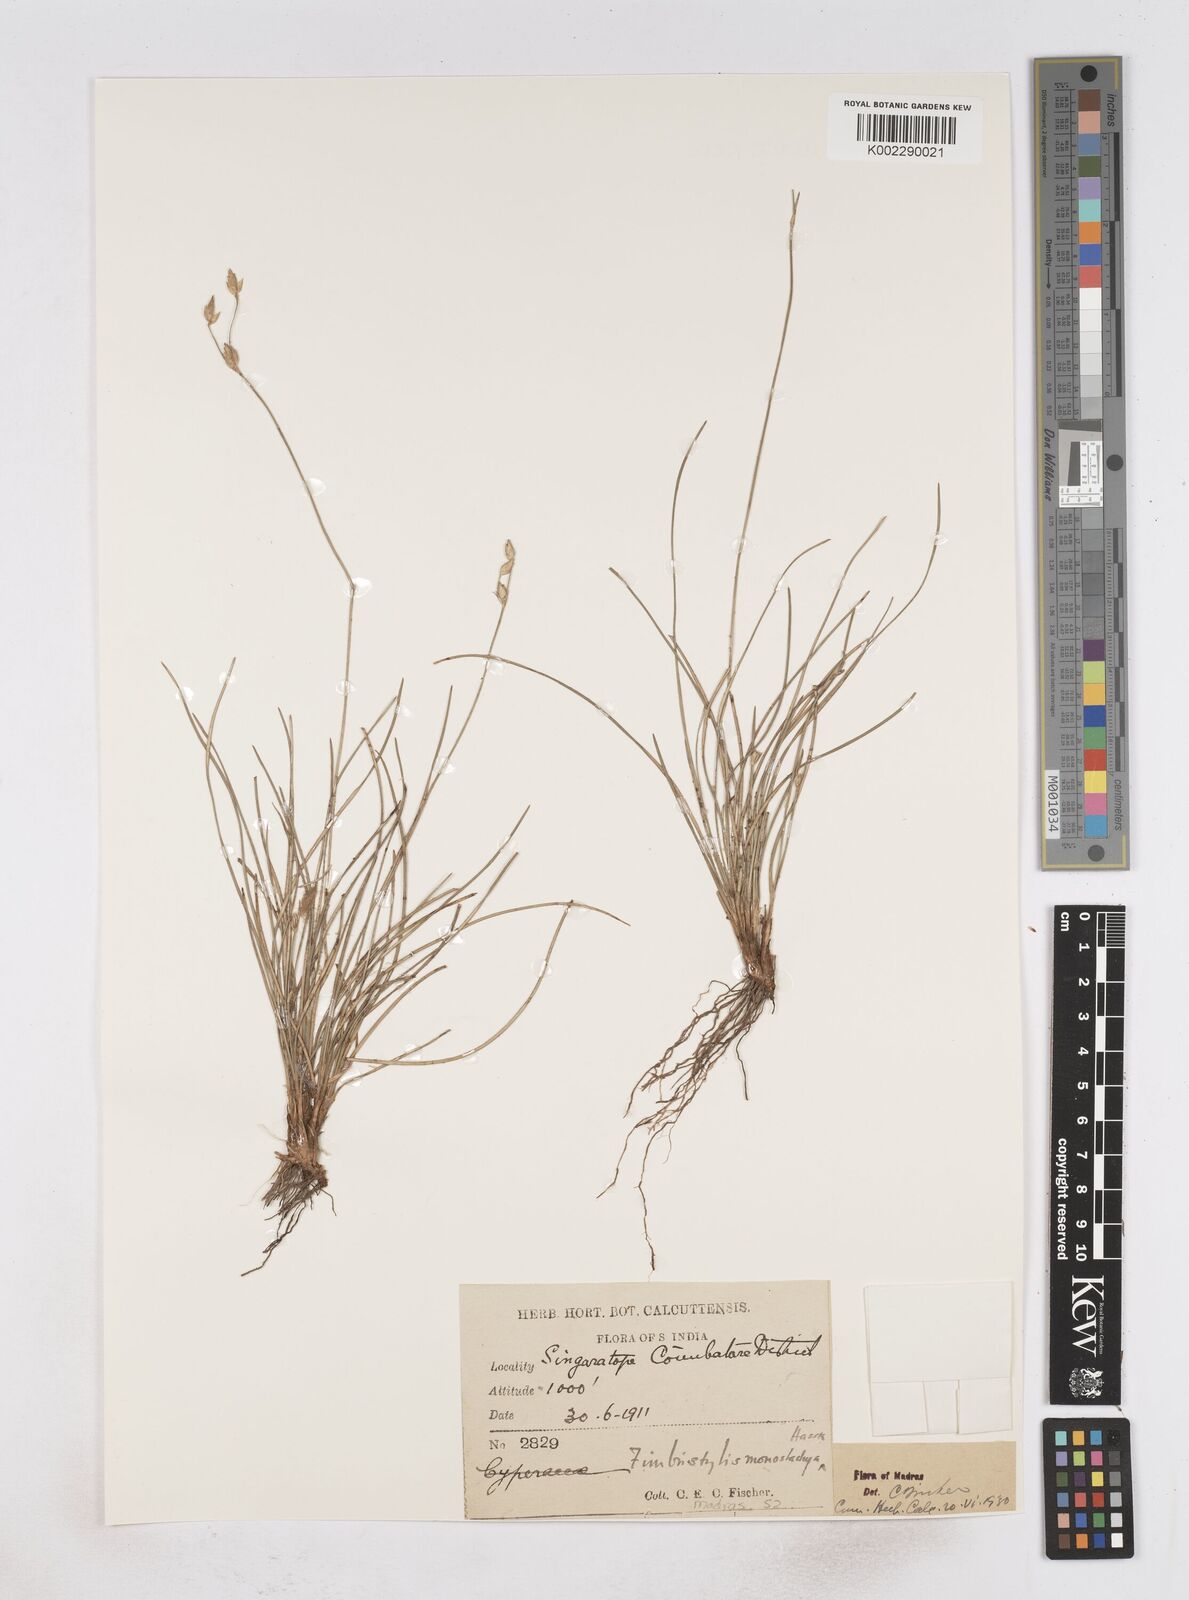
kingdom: Plantae
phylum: Tracheophyta
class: Liliopsida
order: Poales
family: Cyperaceae
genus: Abildgaardia
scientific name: Abildgaardia ovata
